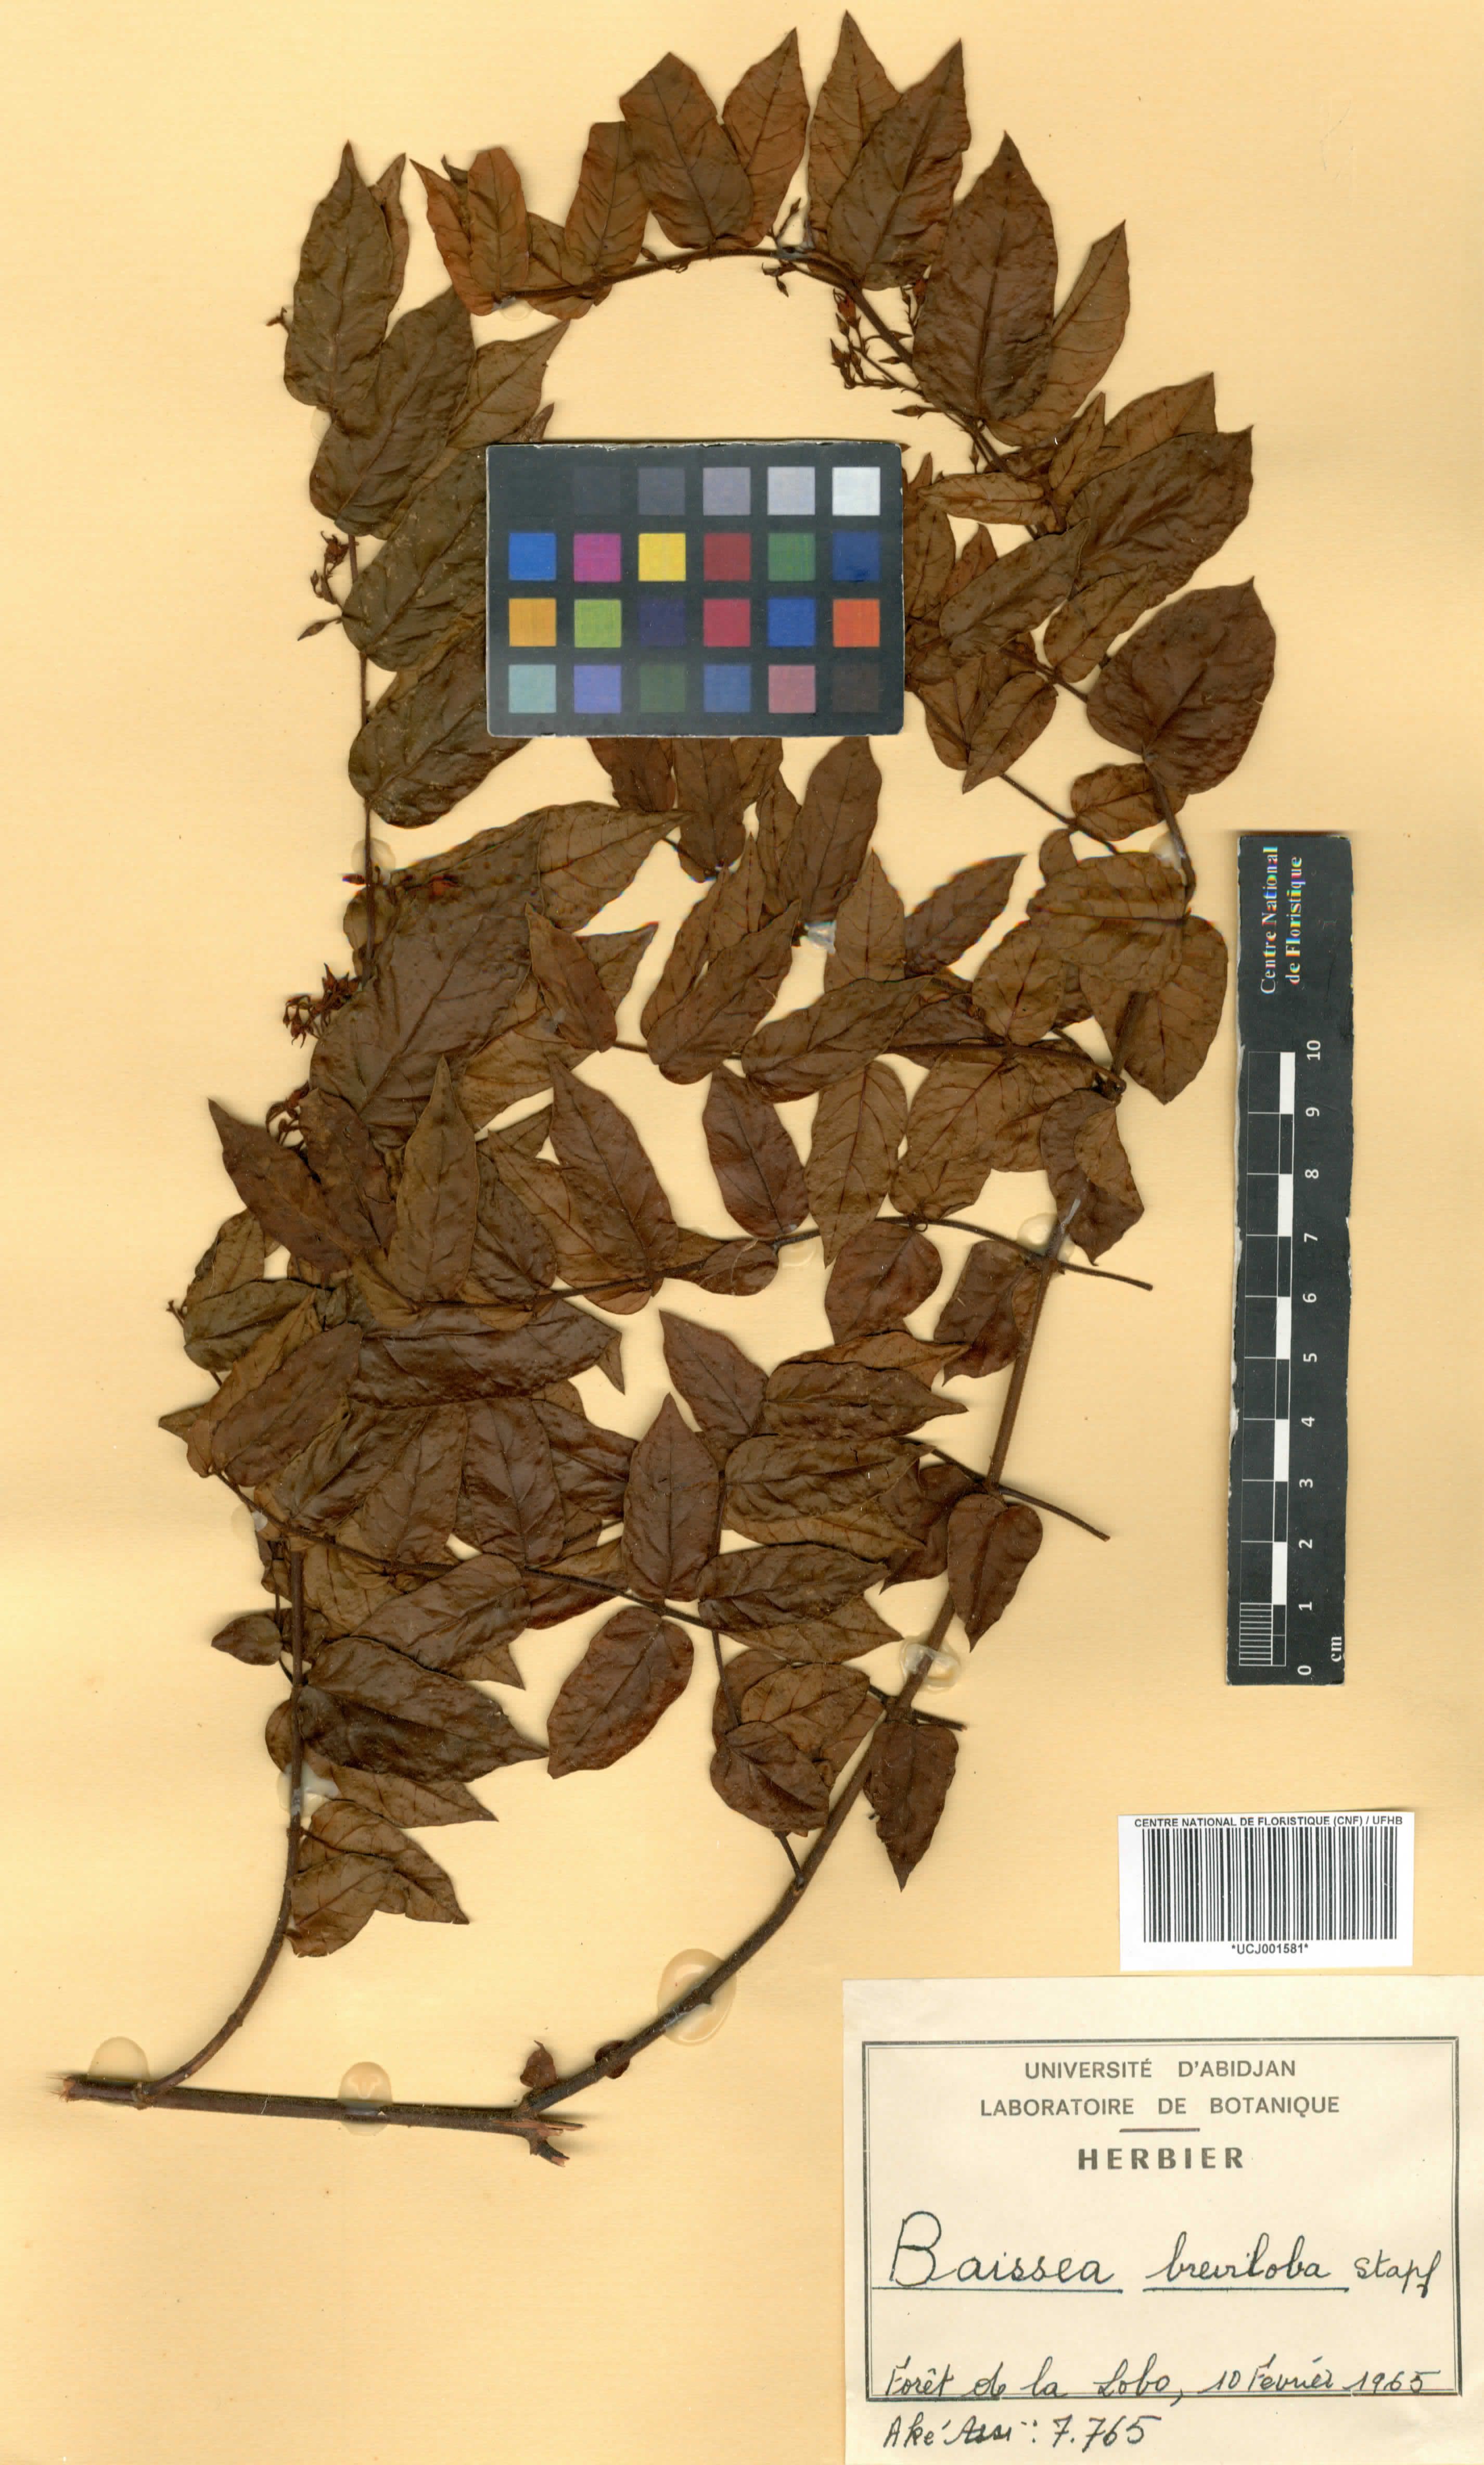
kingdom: Plantae
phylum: Tracheophyta
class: Magnoliopsida
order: Gentianales
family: Apocynaceae
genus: Baissea
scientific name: Baissea baillonii
